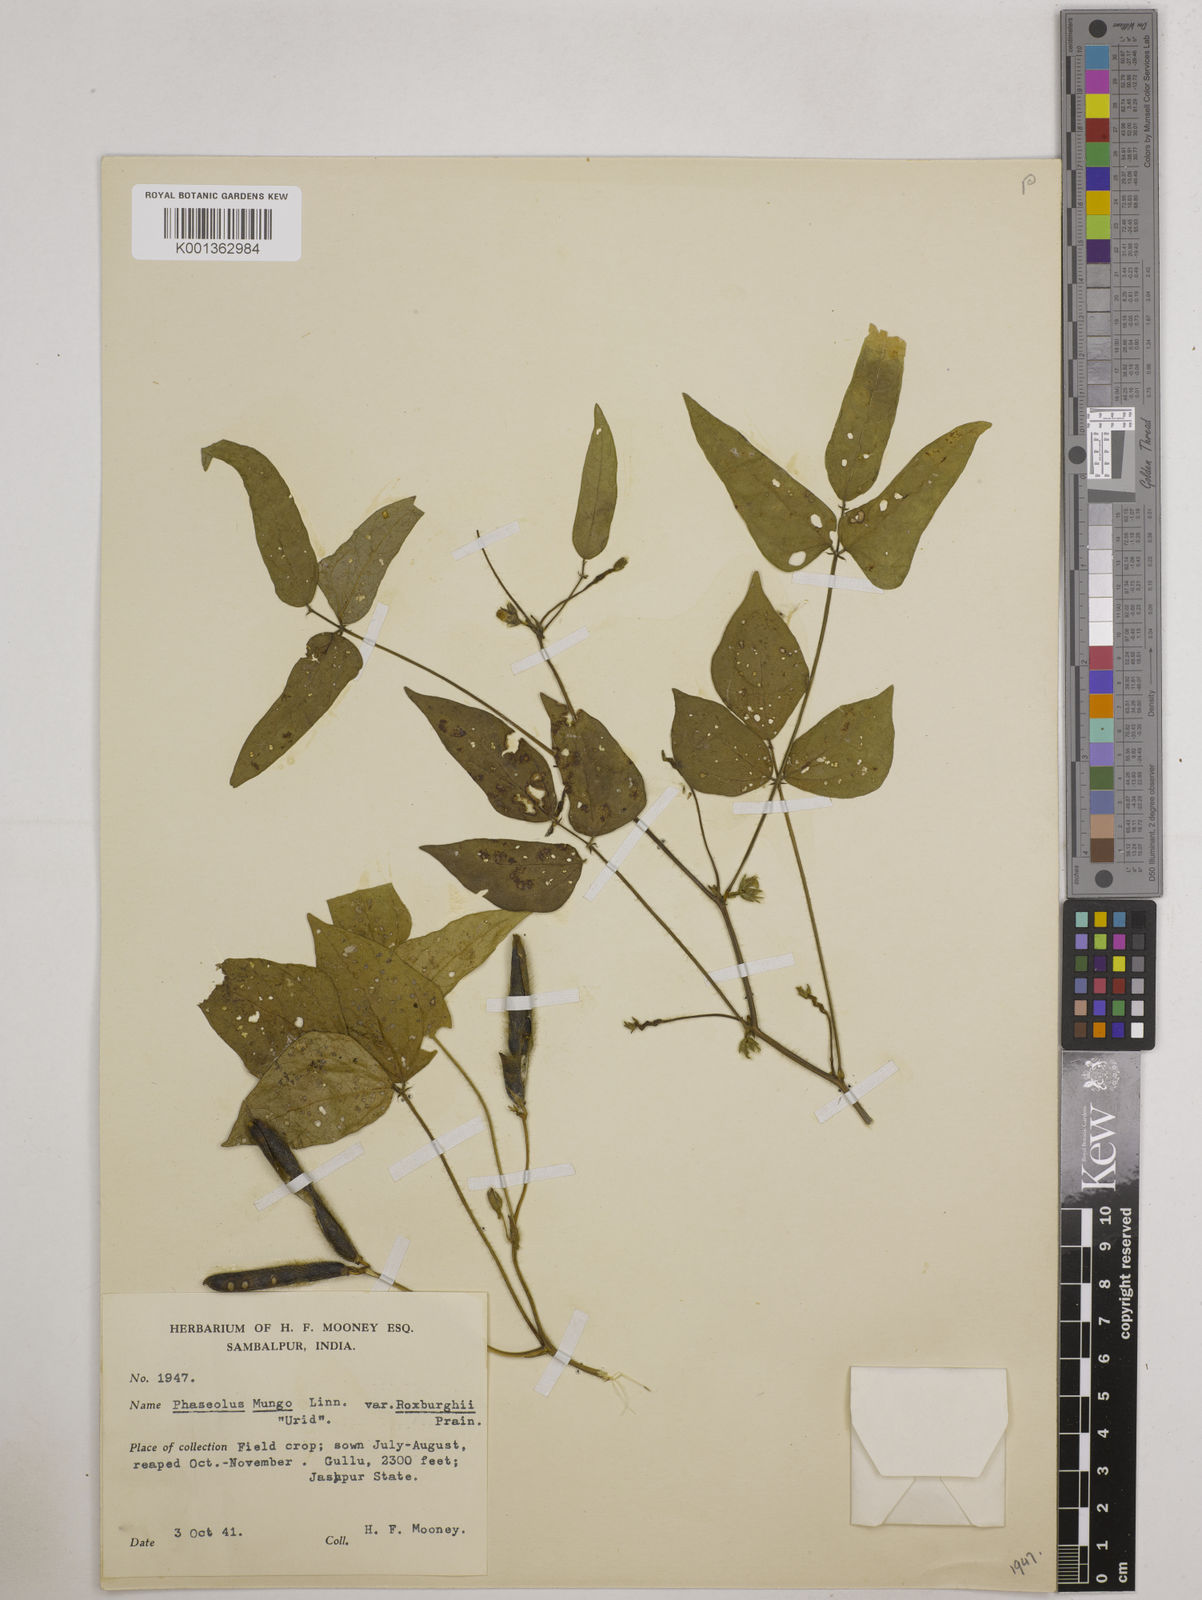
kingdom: Plantae
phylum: Tracheophyta
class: Magnoliopsida
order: Fabales
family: Fabaceae
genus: Vigna
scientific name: Vigna mungo
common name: Black gram
